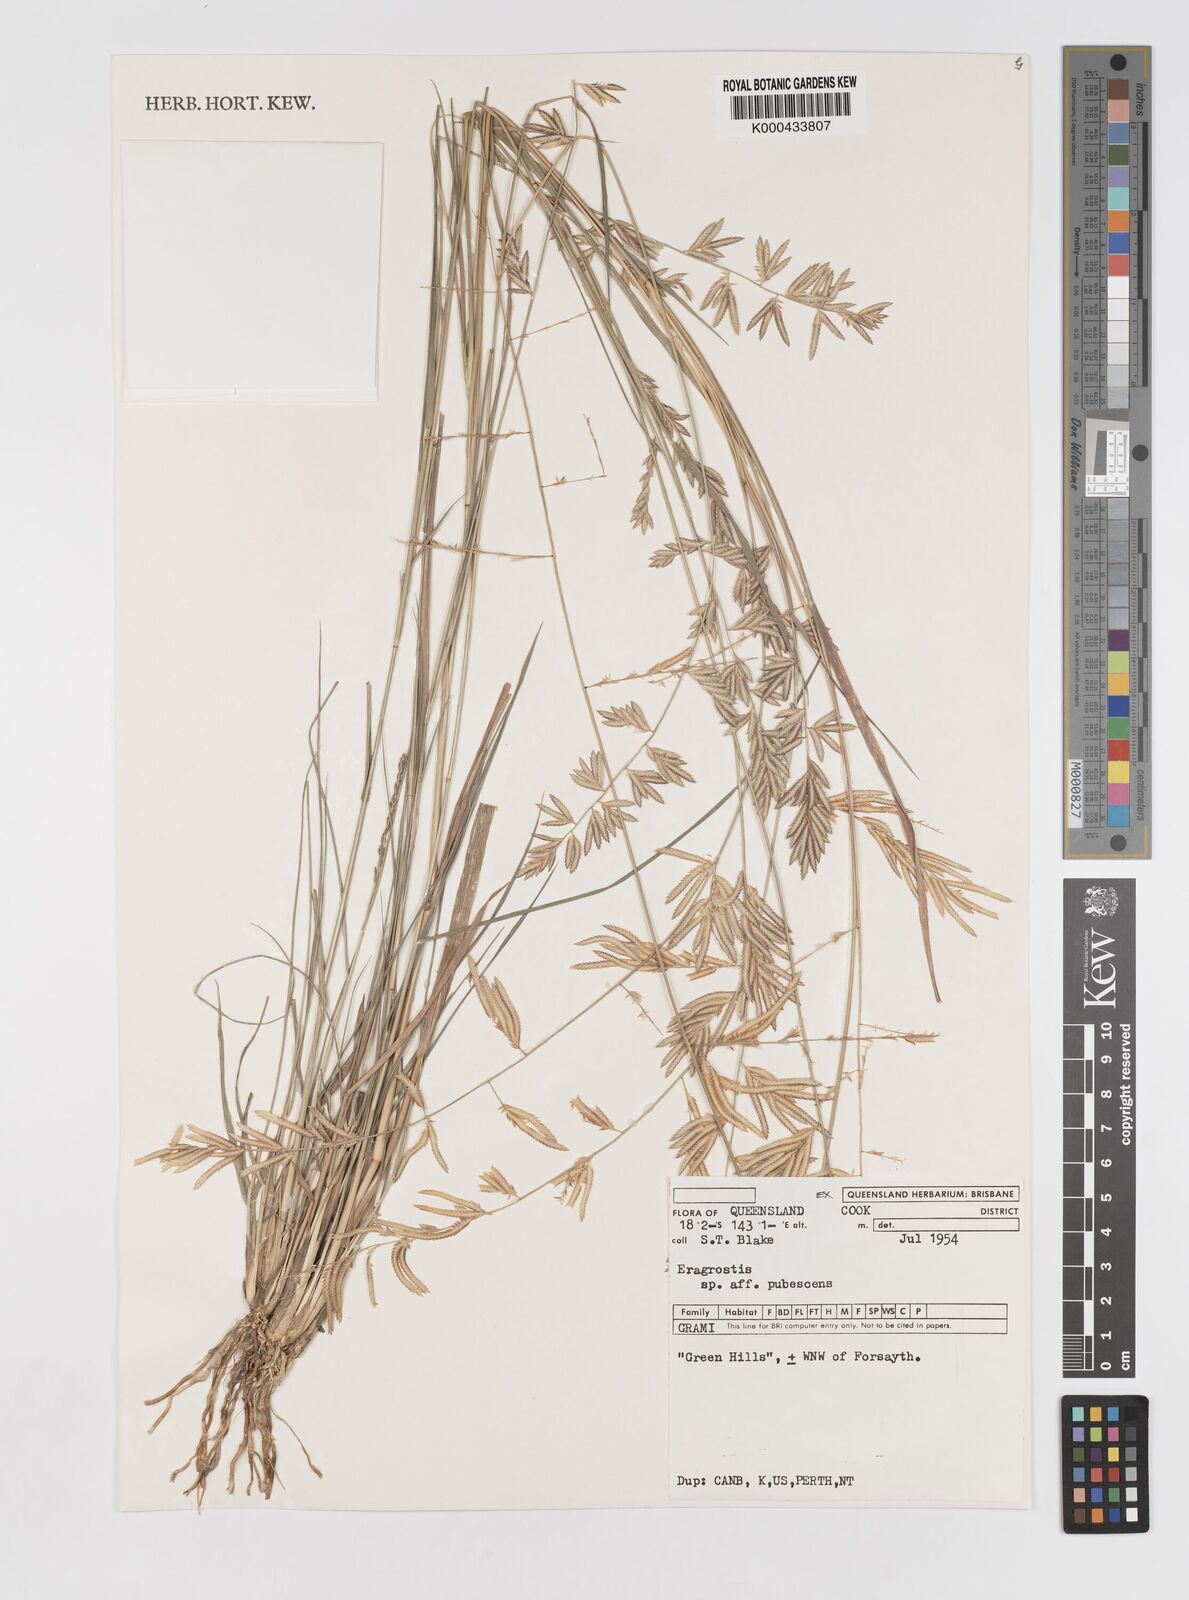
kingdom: Plantae
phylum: Tracheophyta
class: Liliopsida
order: Poales
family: Poaceae
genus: Eragrostis
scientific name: Eragrostis pubescens
